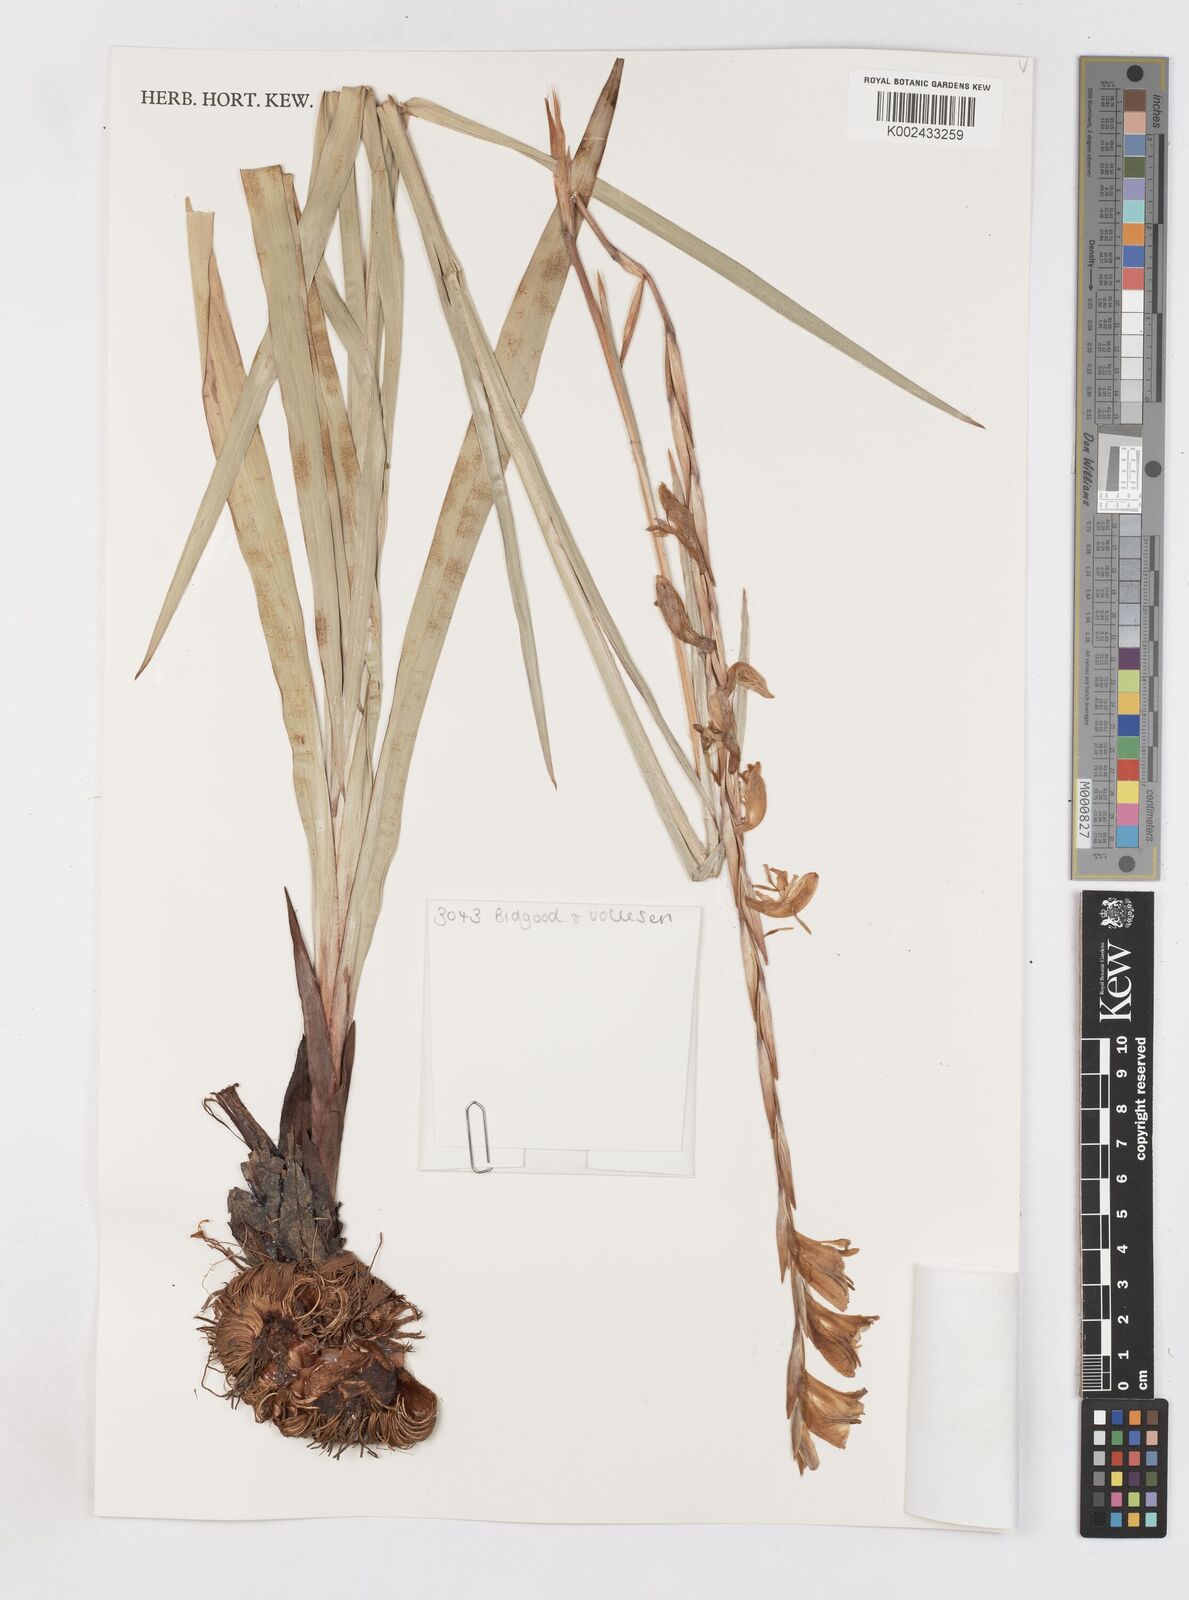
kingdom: Plantae
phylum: Tracheophyta
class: Liliopsida
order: Asparagales
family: Iridaceae
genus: Gladiolus
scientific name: Gladiolus gregarius
